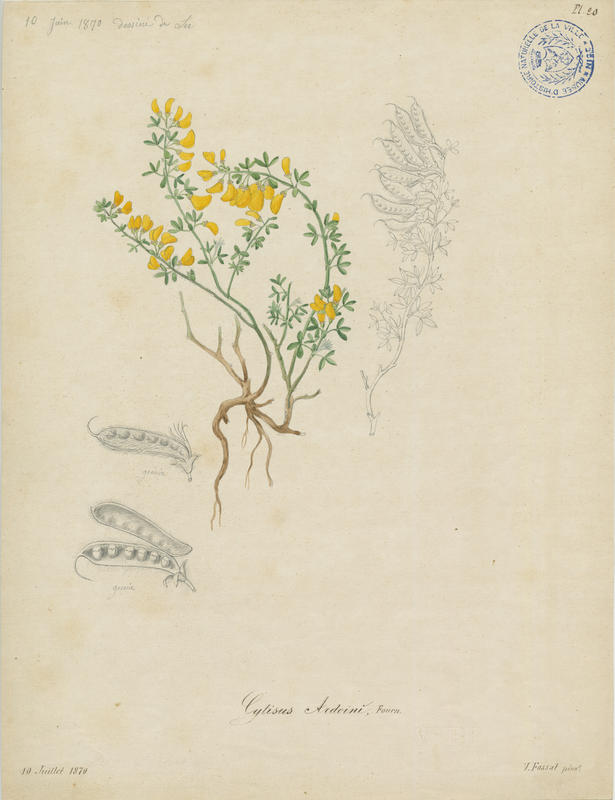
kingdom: Plantae
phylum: Tracheophyta
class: Magnoliopsida
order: Fabales
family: Fabaceae
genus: Cytisus
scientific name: Cytisus ardoinii
